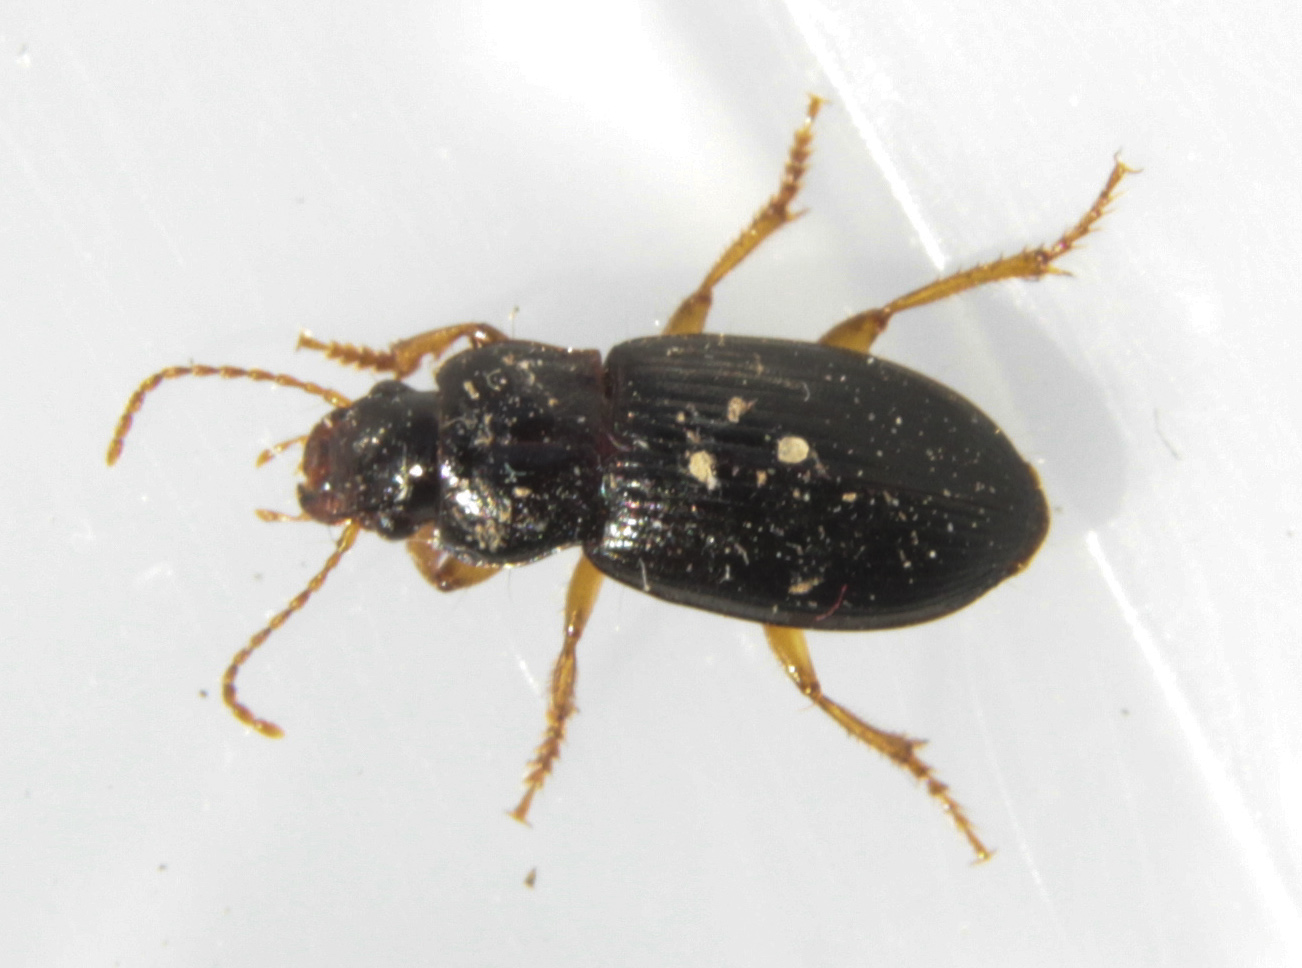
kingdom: Animalia
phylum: Arthropoda
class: Insecta
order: Coleoptera
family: Carabidae
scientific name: Carabidae
